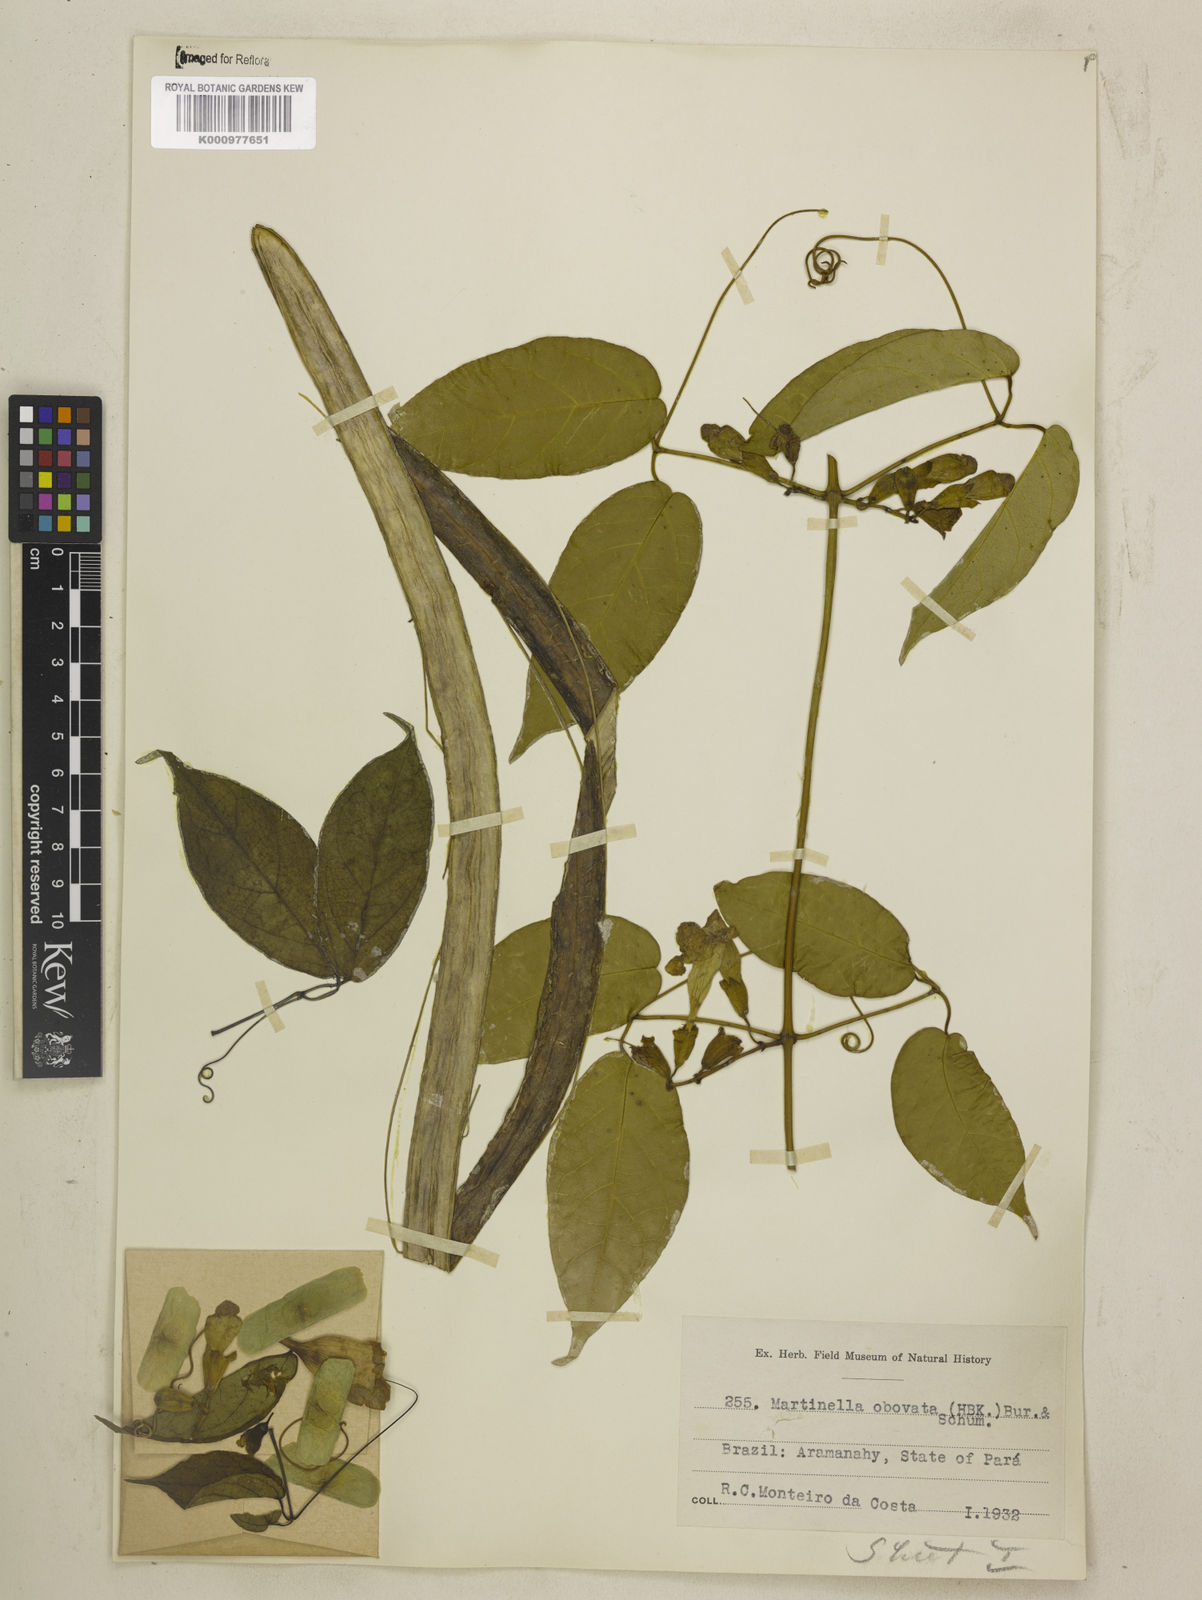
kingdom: Animalia
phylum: Arthropoda
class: Insecta
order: Coleoptera
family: Chrysomelidae
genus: Martinella
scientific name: Martinella obovata
